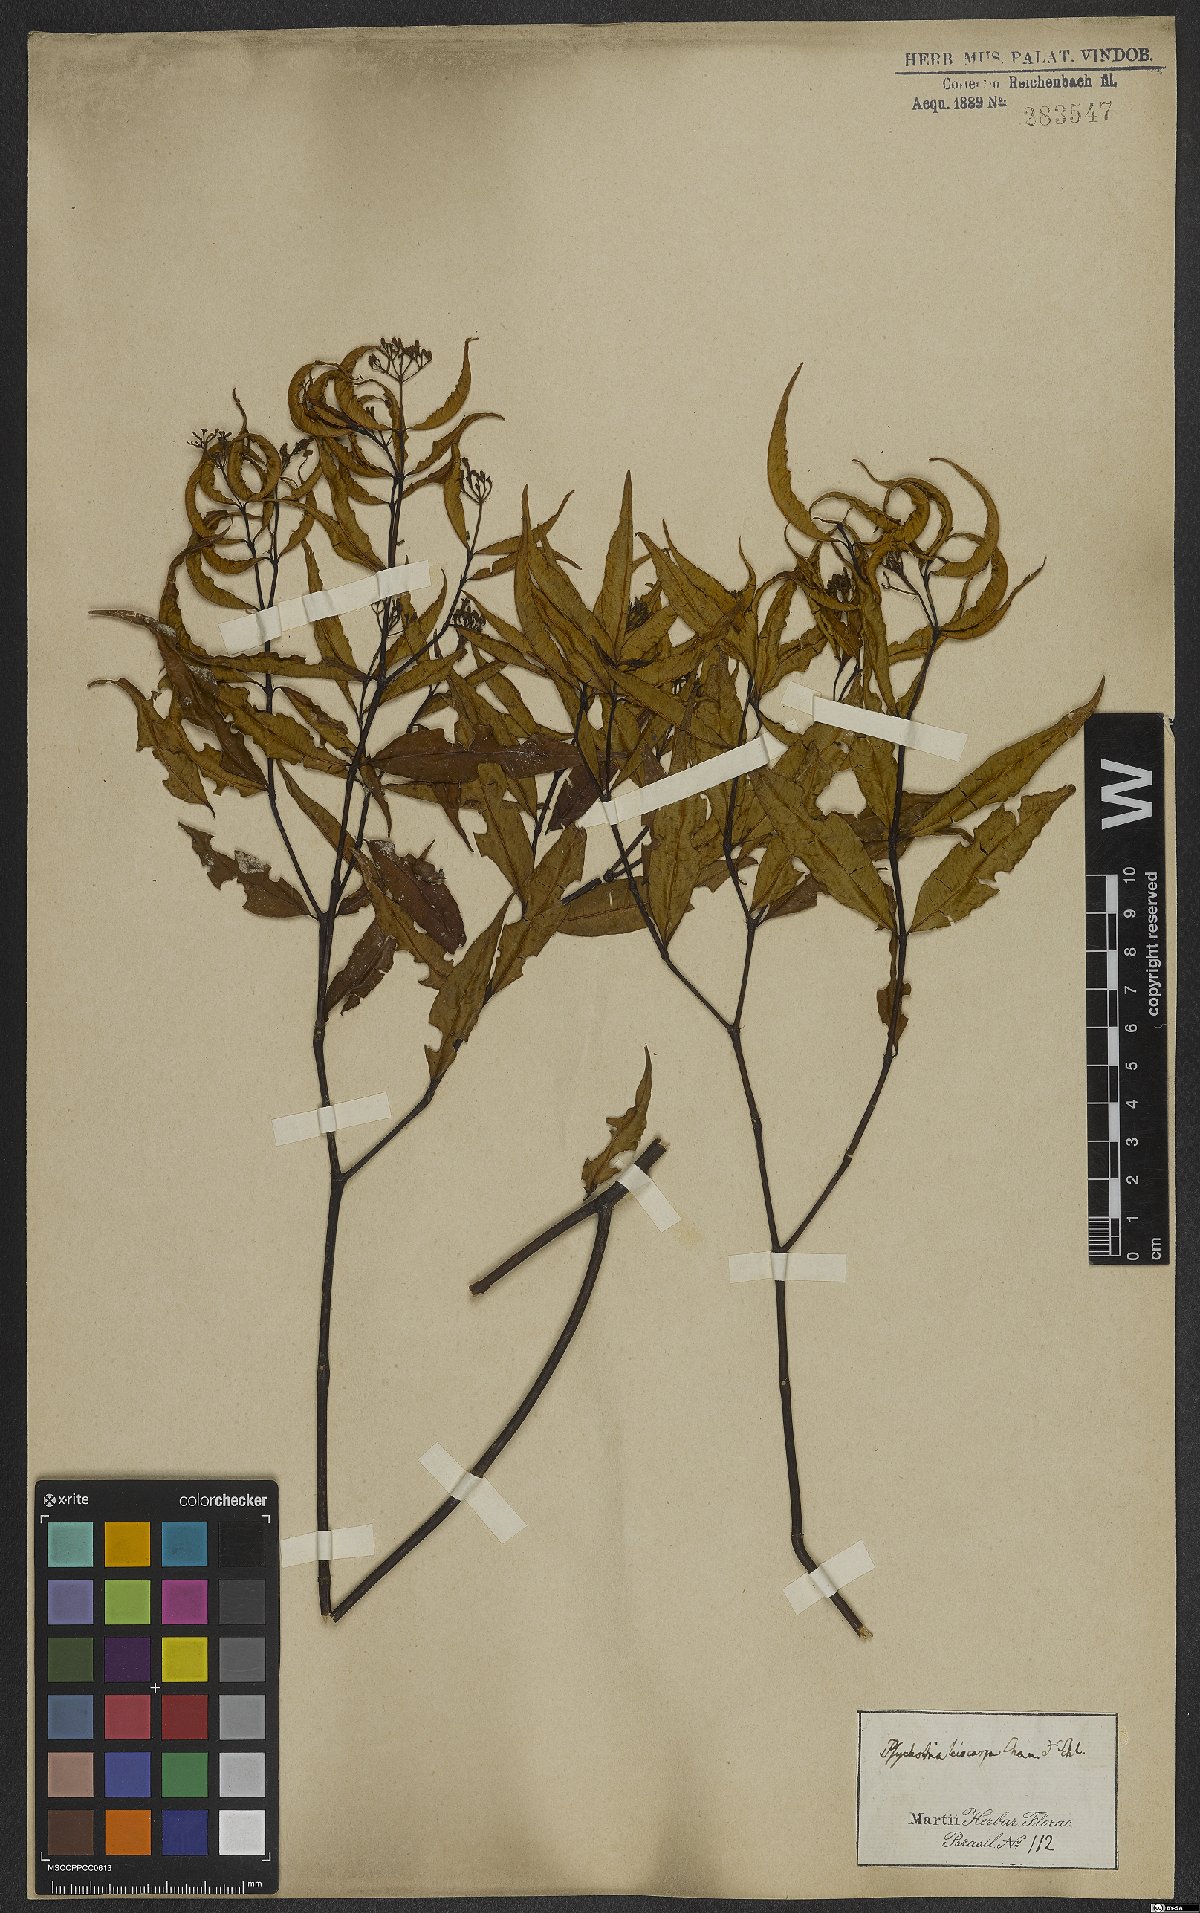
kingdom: Plantae
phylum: Tracheophyta
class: Magnoliopsida
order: Gentianales
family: Rubiaceae
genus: Psychotria
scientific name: Psychotria leiocarpa
